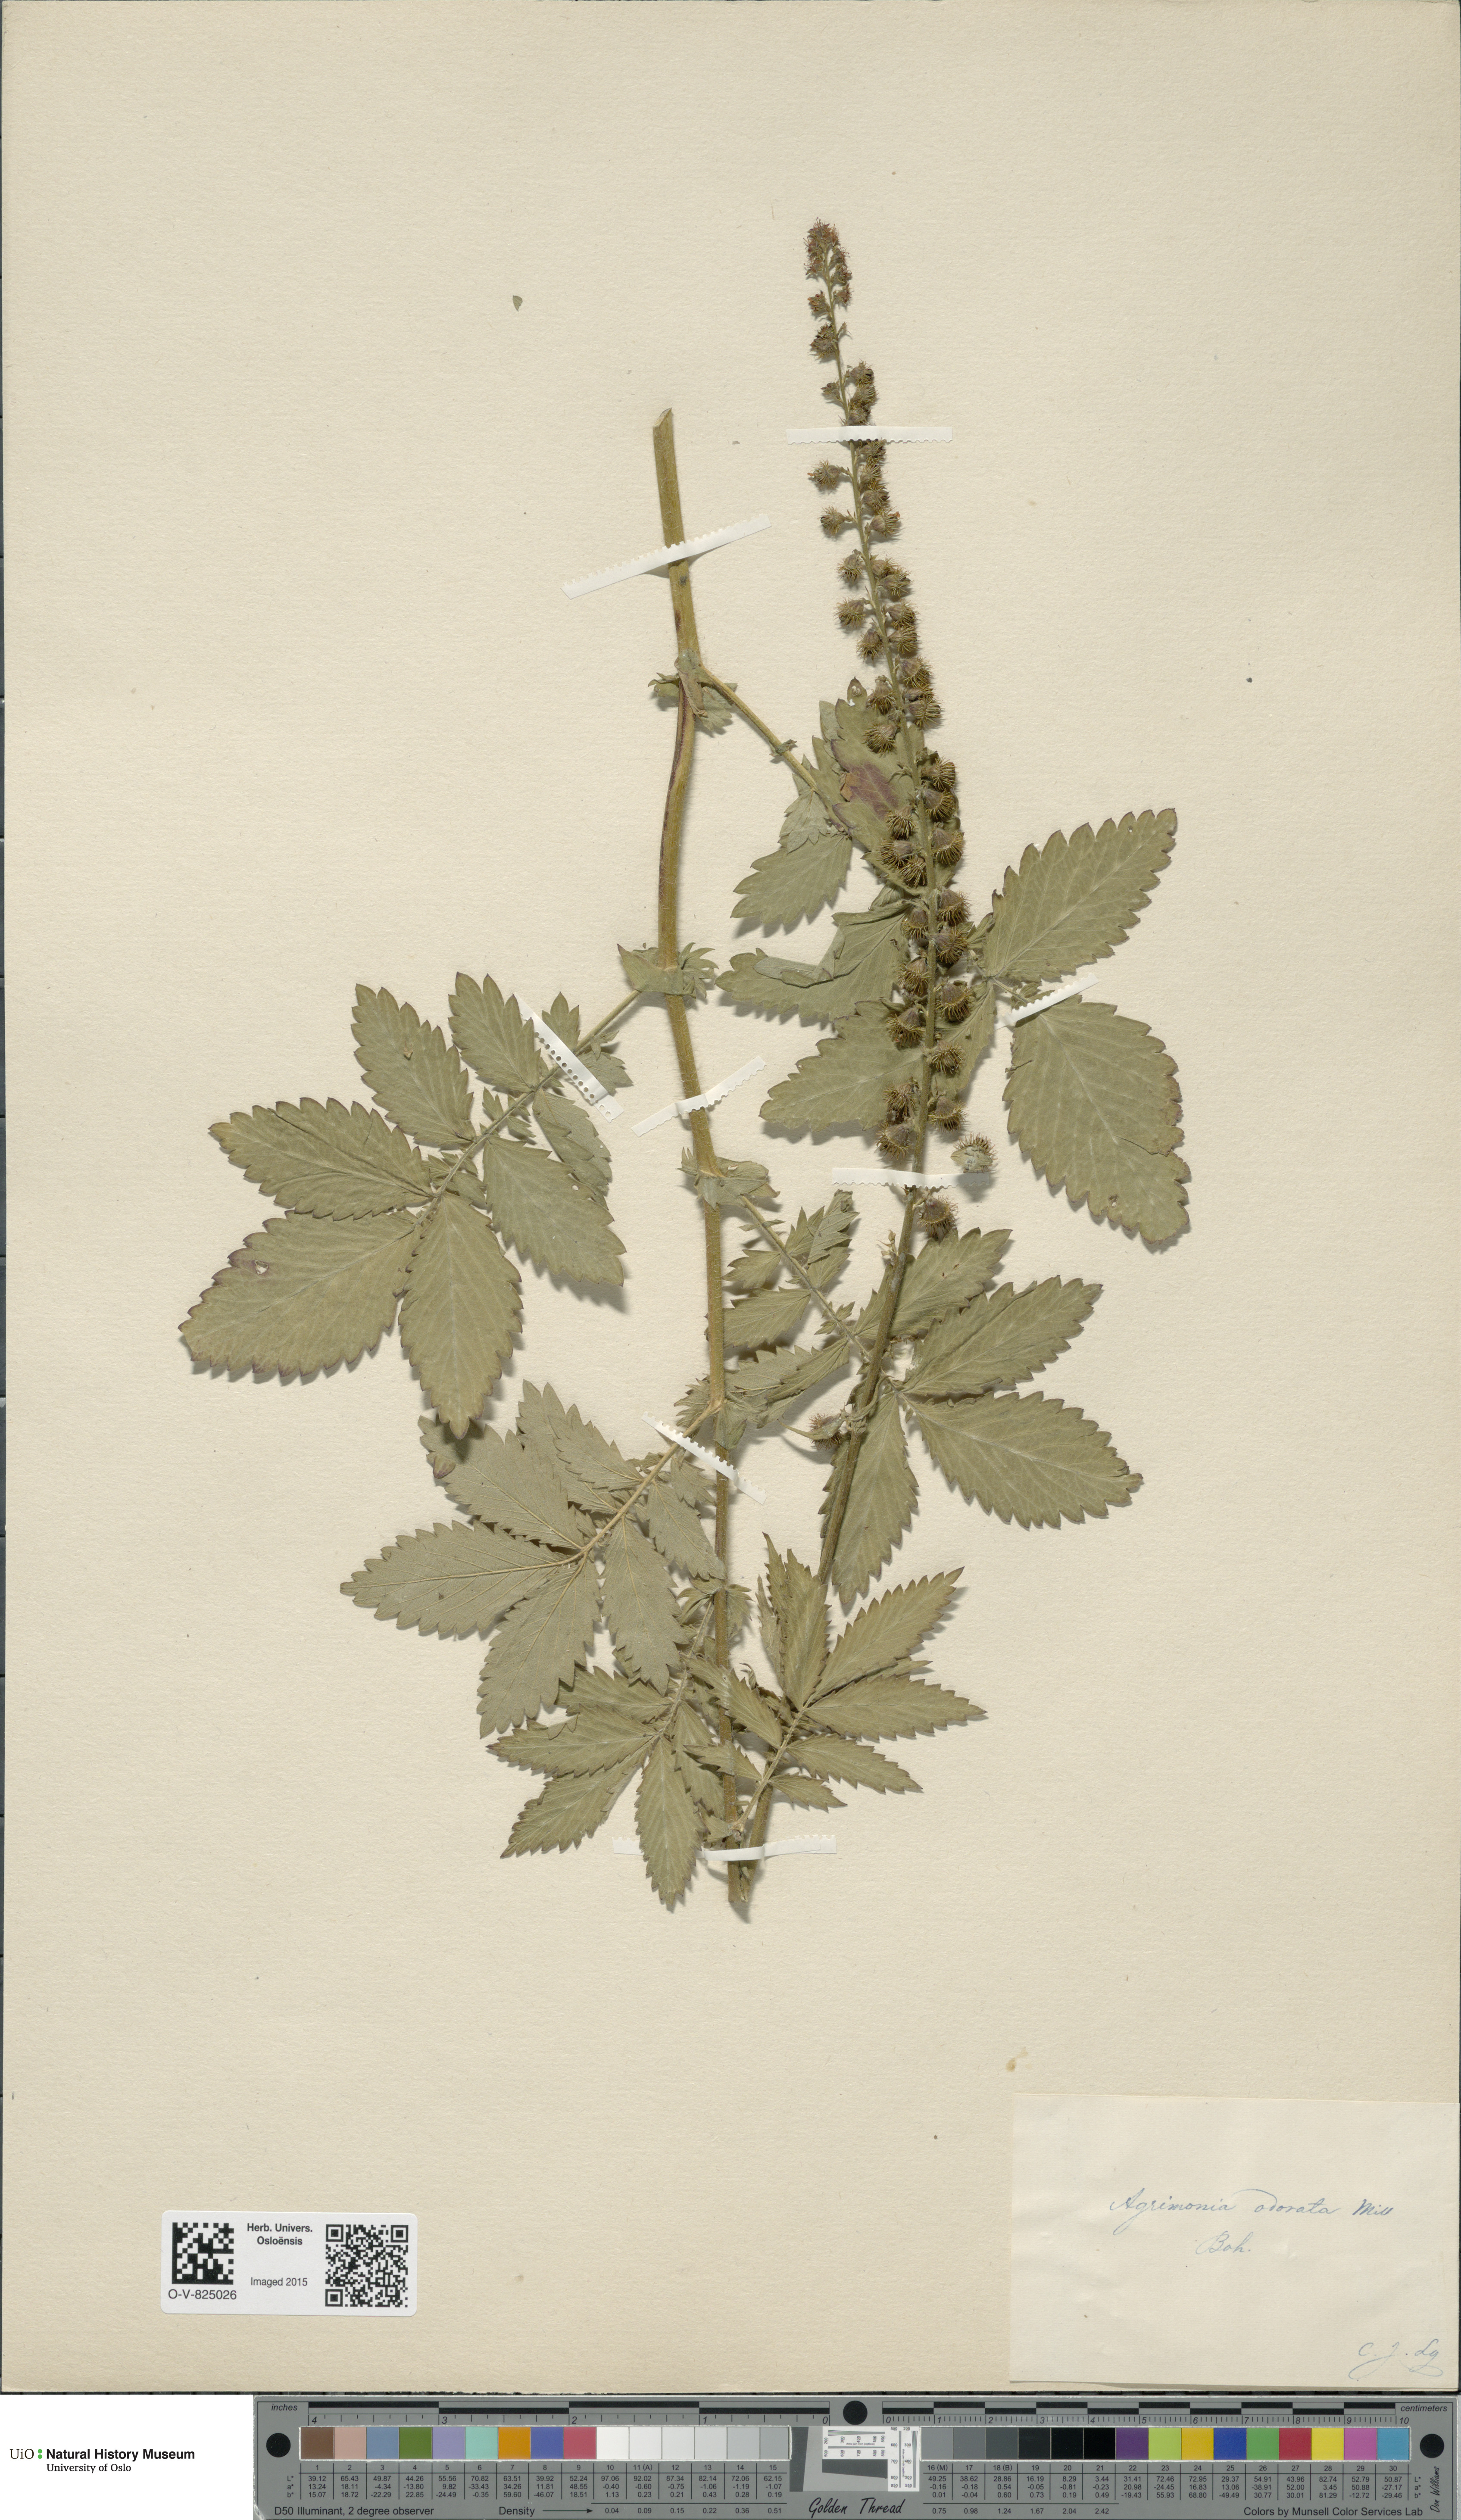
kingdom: Plantae
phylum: Tracheophyta
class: Magnoliopsida
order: Rosales
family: Rosaceae
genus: Agrimonia
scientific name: Agrimonia procera
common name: Fragrant agrimony
